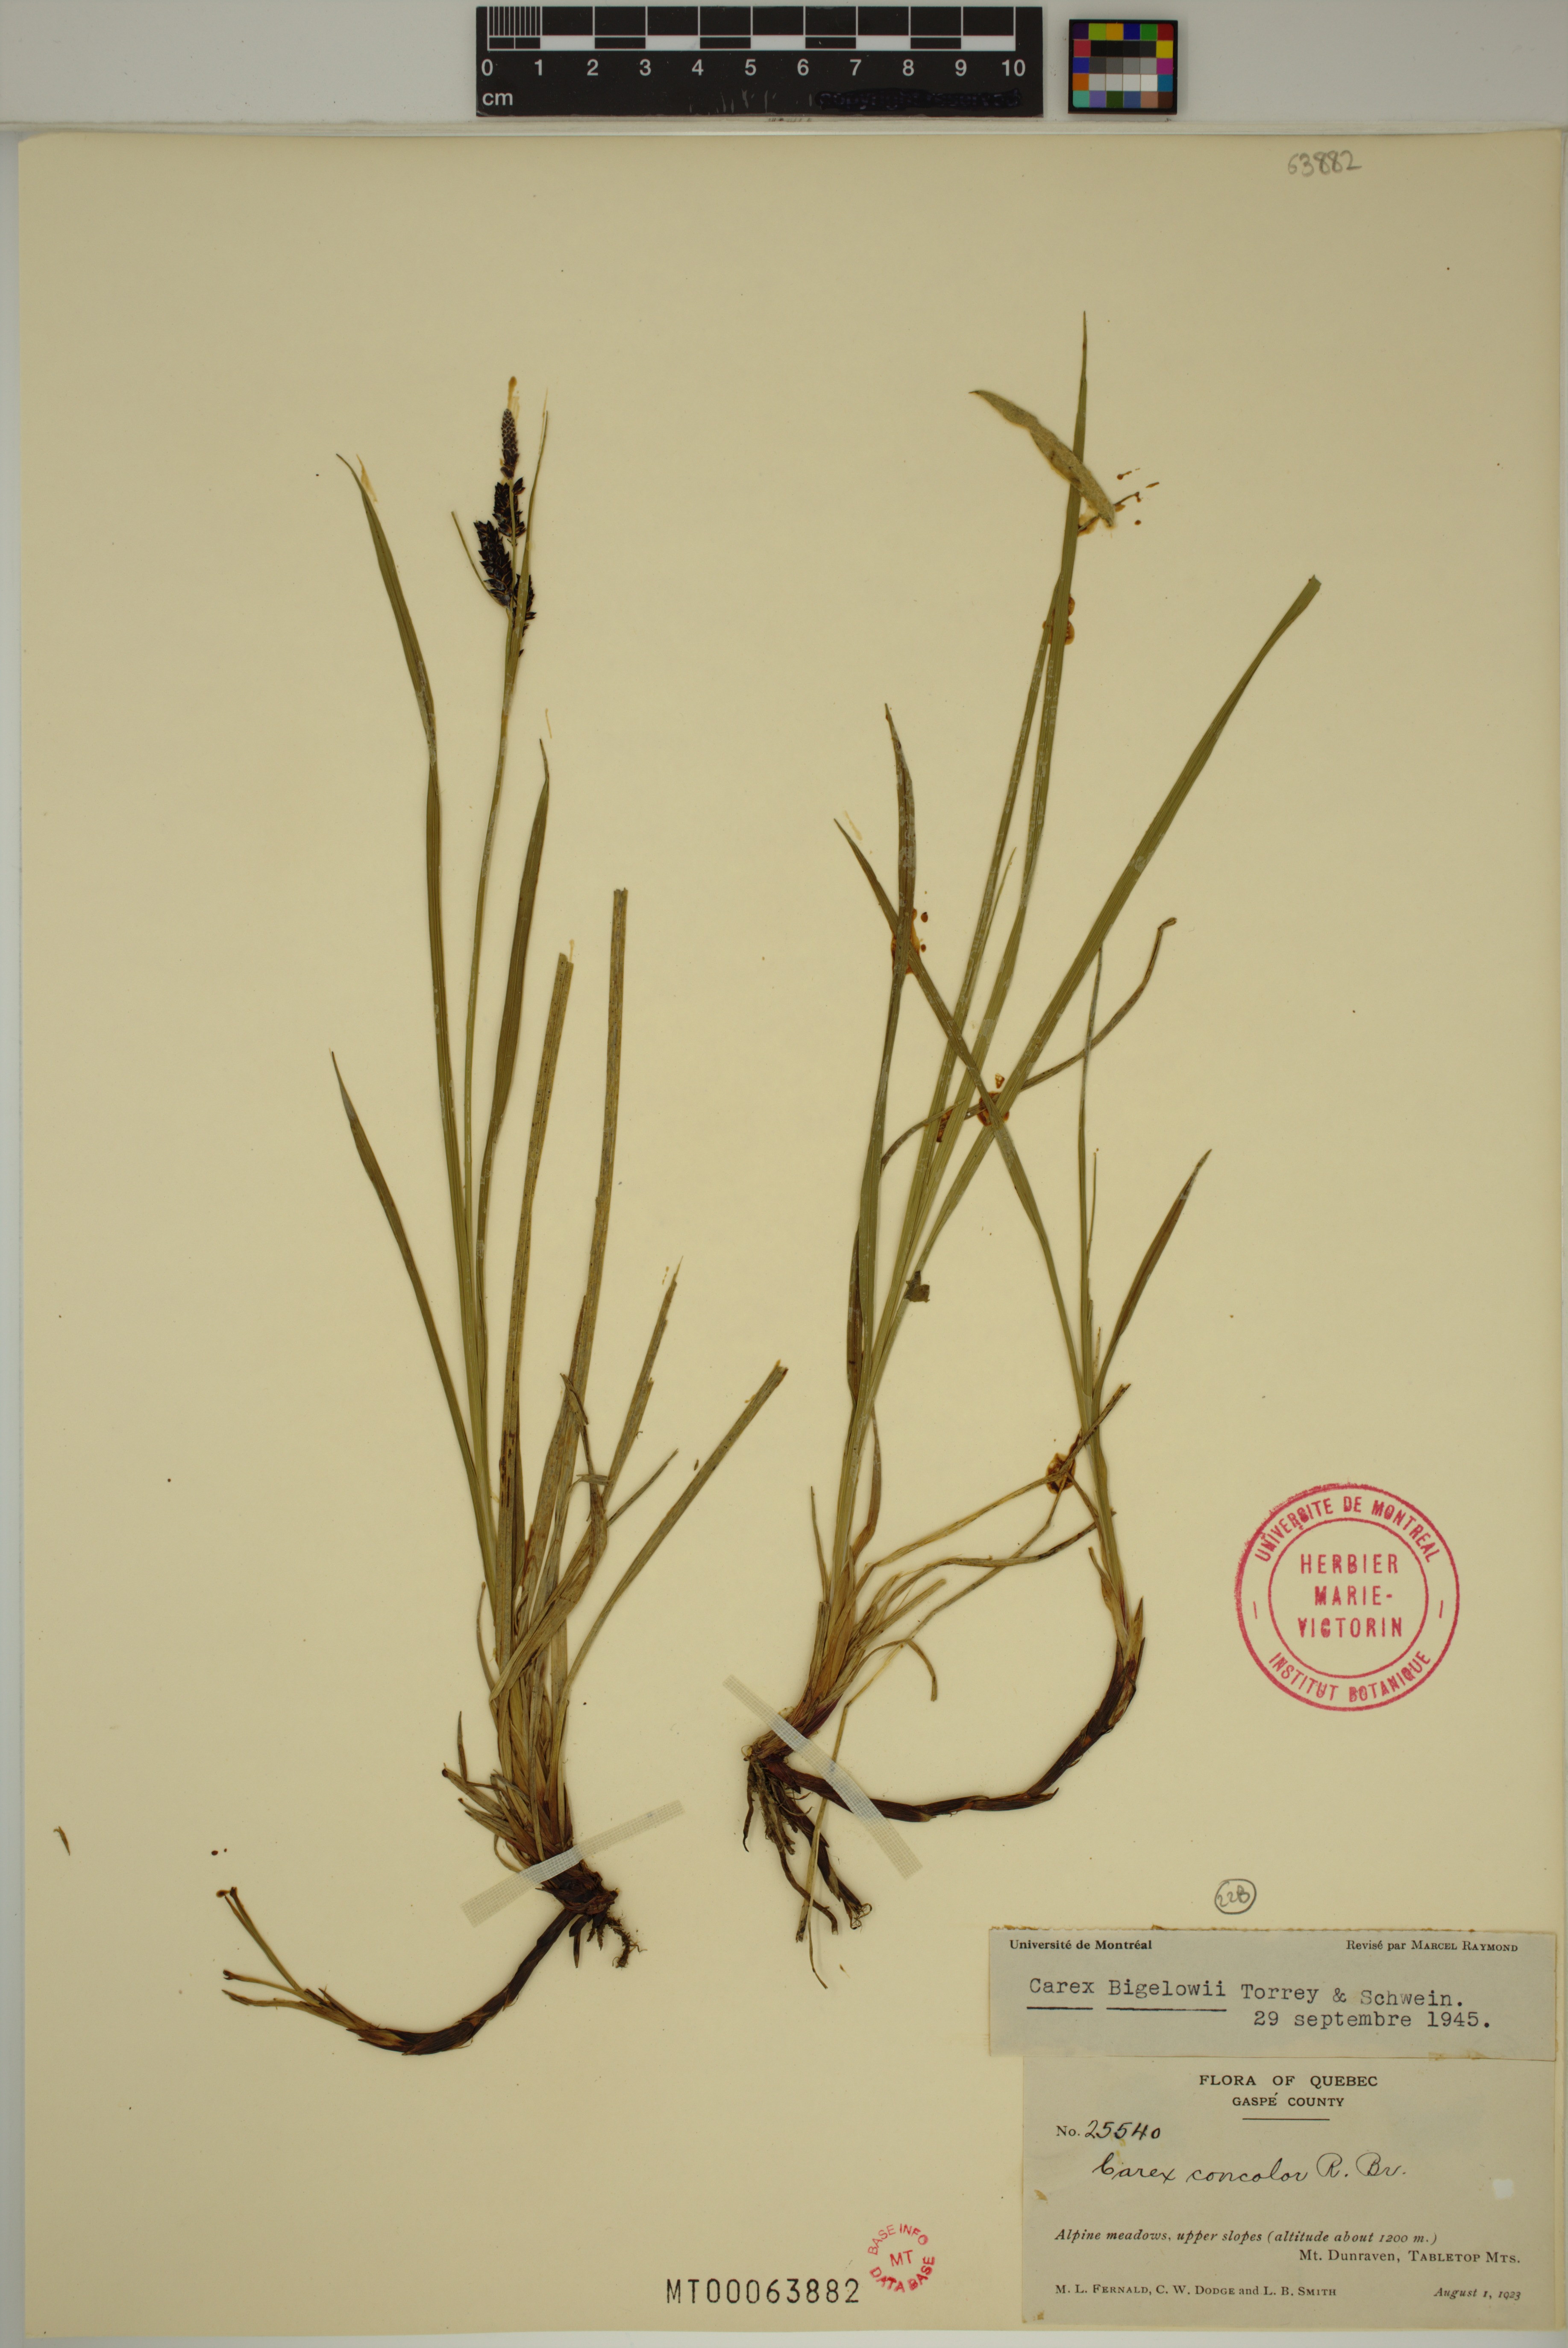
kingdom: Plantae
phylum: Tracheophyta
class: Liliopsida
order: Poales
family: Cyperaceae
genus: Carex
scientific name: Carex bigelowii
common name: Stiff sedge
